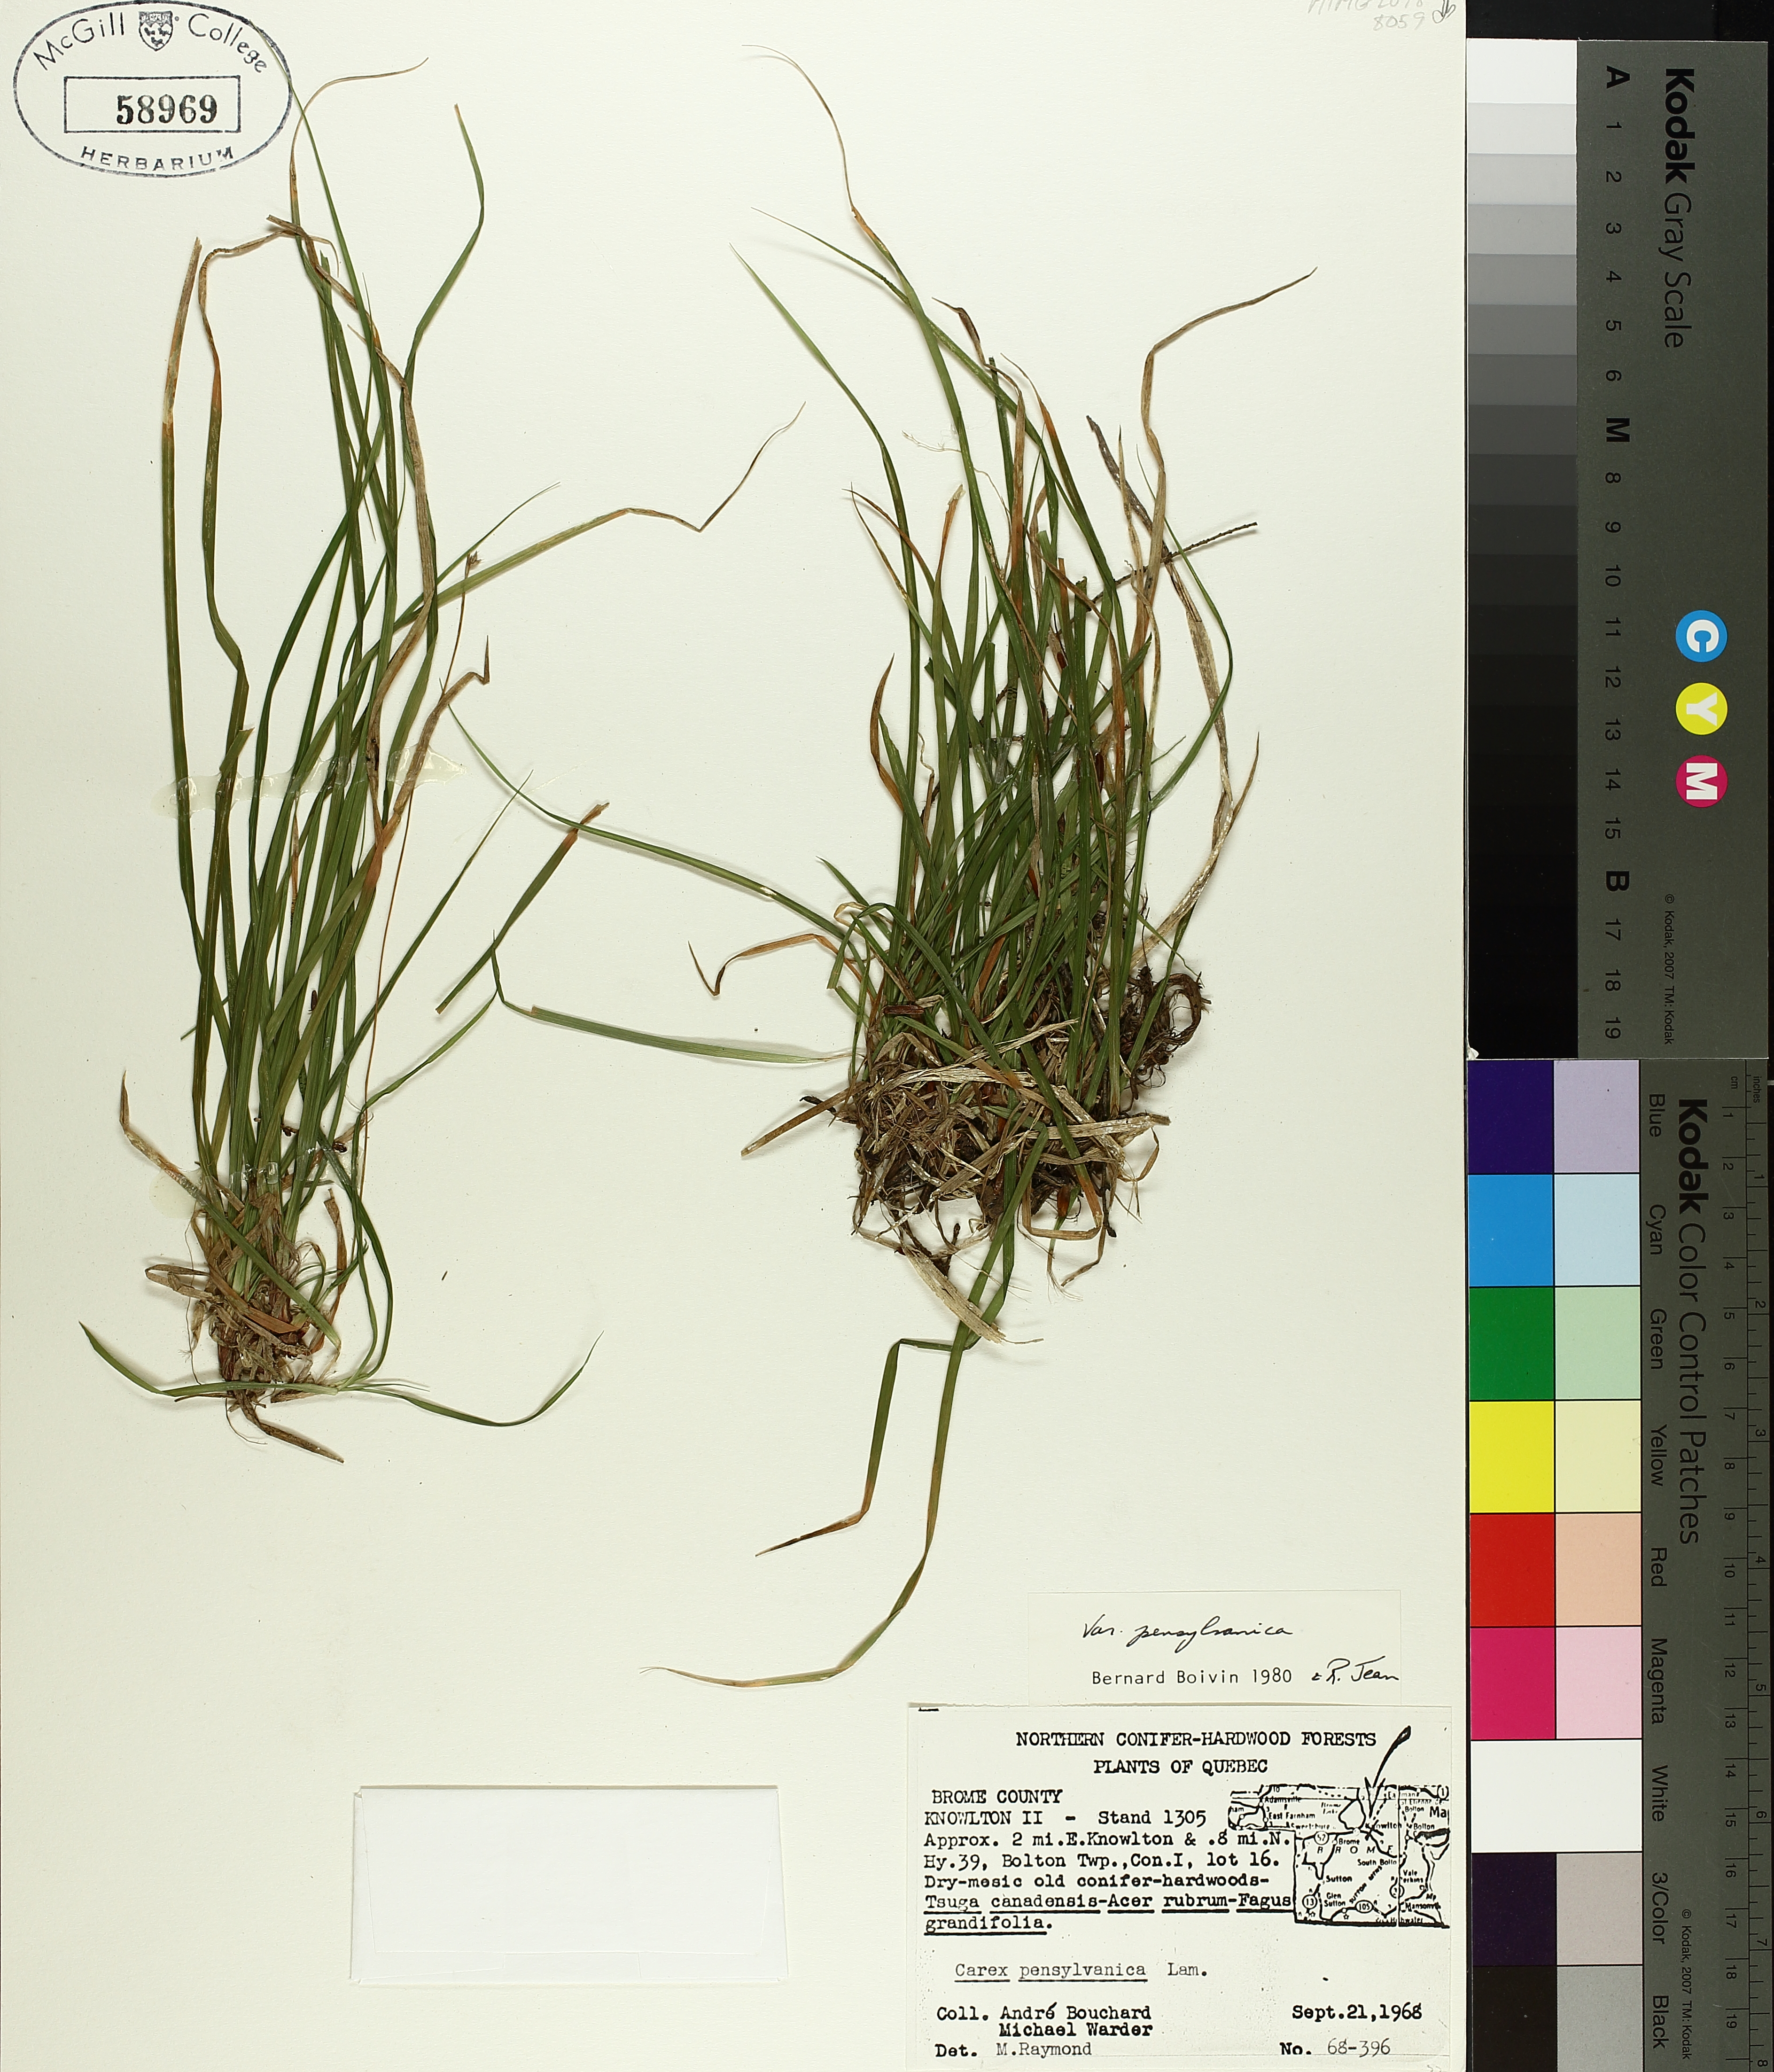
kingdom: Plantae
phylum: Tracheophyta
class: Liliopsida
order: Poales
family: Cyperaceae
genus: Carex
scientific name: Carex pensylvanica
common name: Common oak sedge
